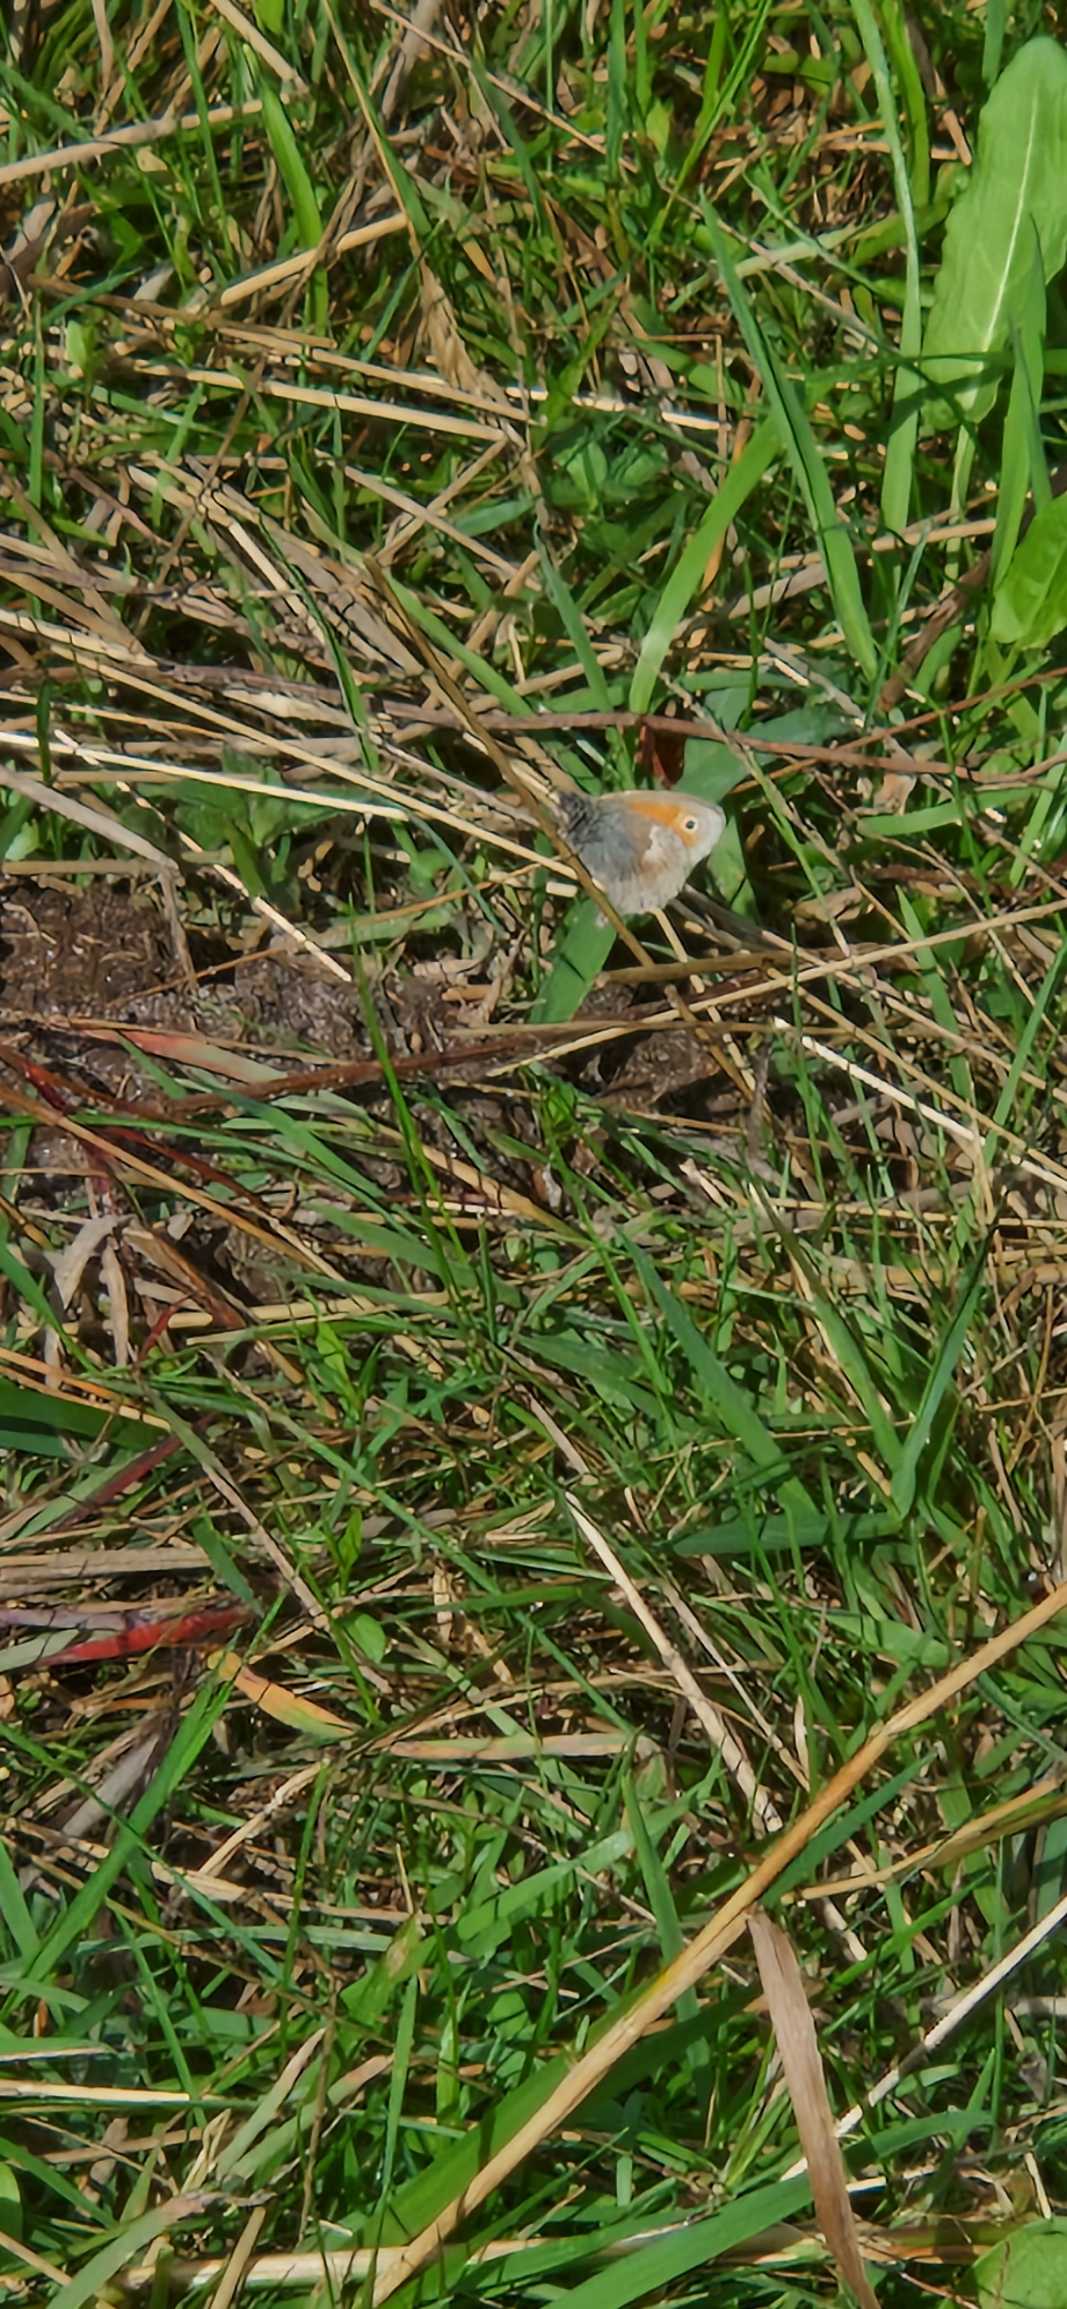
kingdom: Animalia
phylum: Arthropoda
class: Insecta
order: Lepidoptera
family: Nymphalidae
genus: Coenonympha
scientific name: Coenonympha pamphilus
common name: Okkergul randøje
